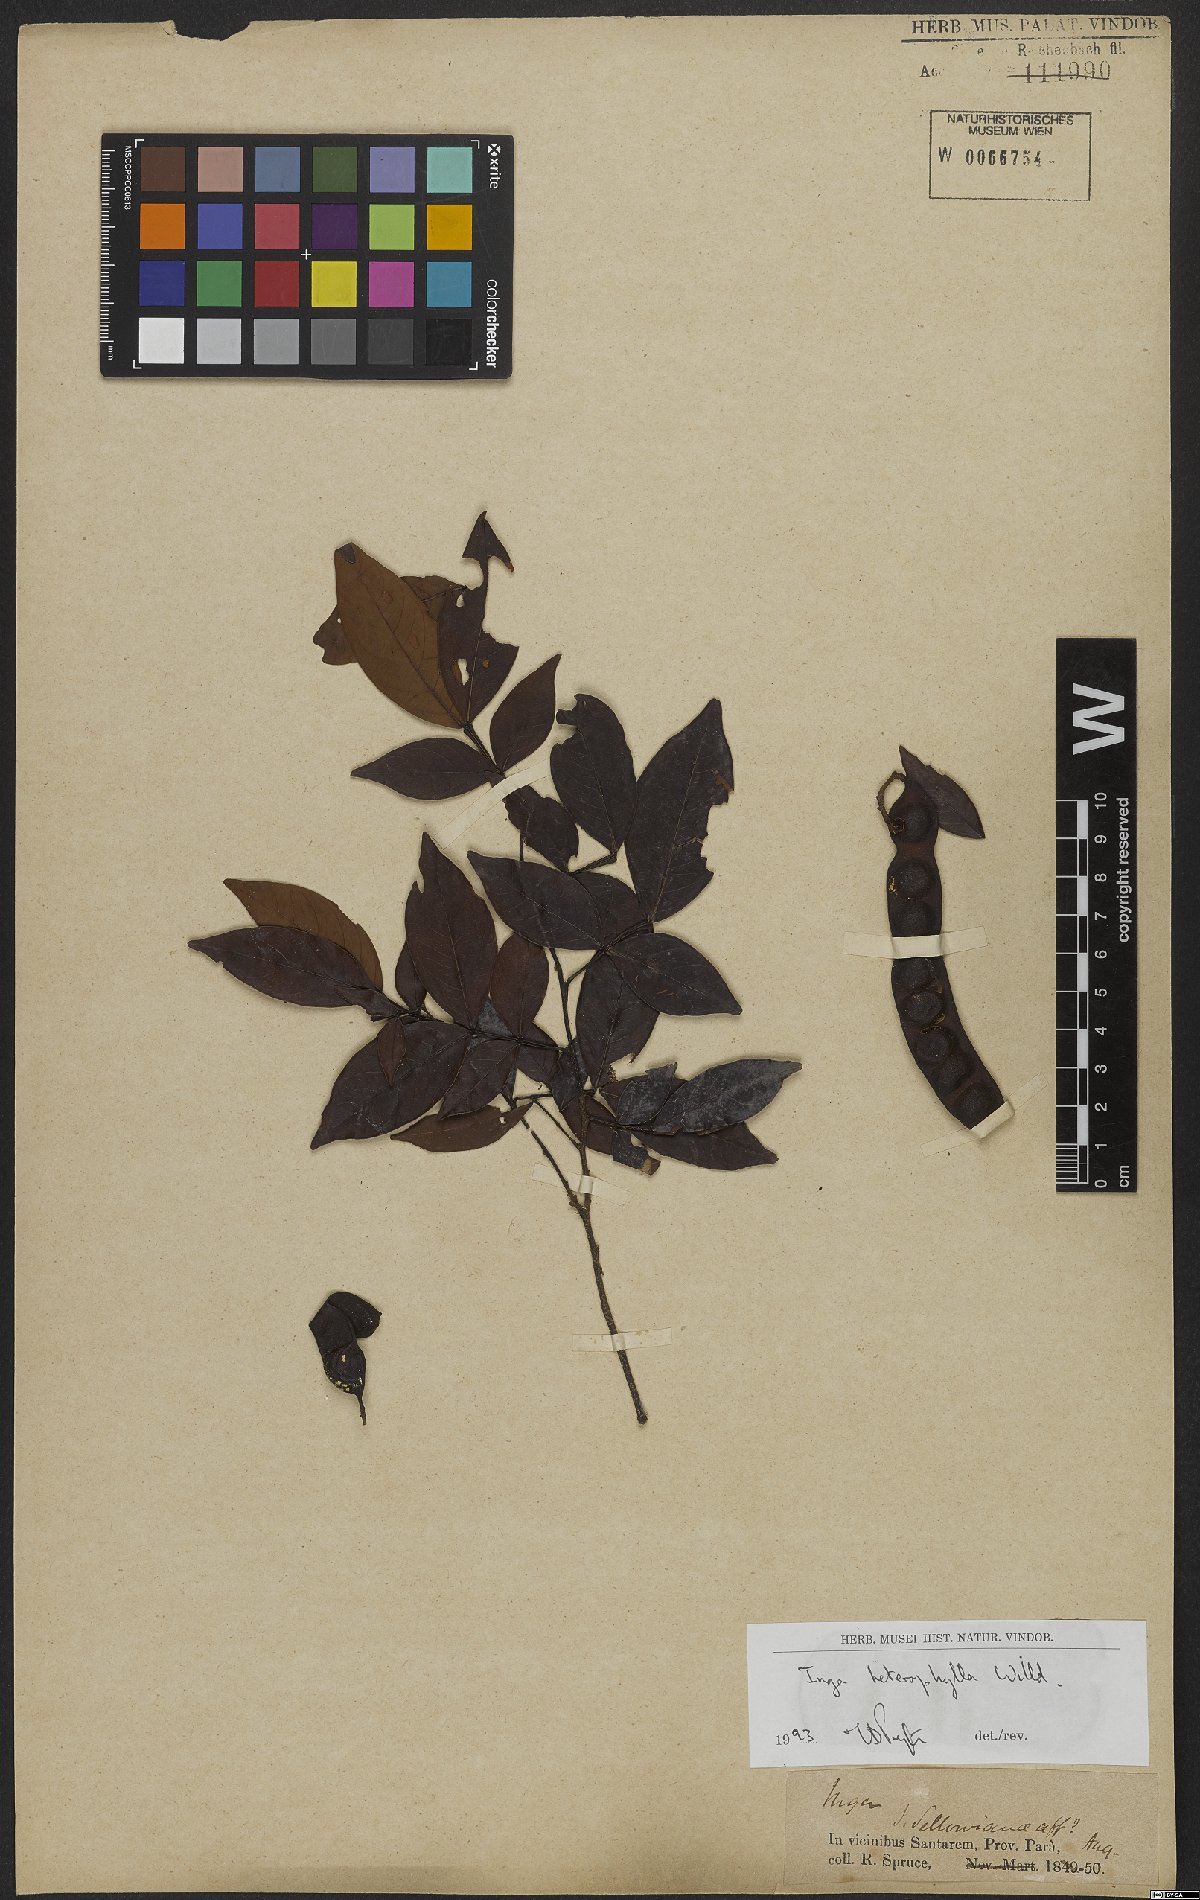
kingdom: Plantae
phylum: Tracheophyta
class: Magnoliopsida
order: Fabales
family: Fabaceae
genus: Inga
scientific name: Inga heterophylla
